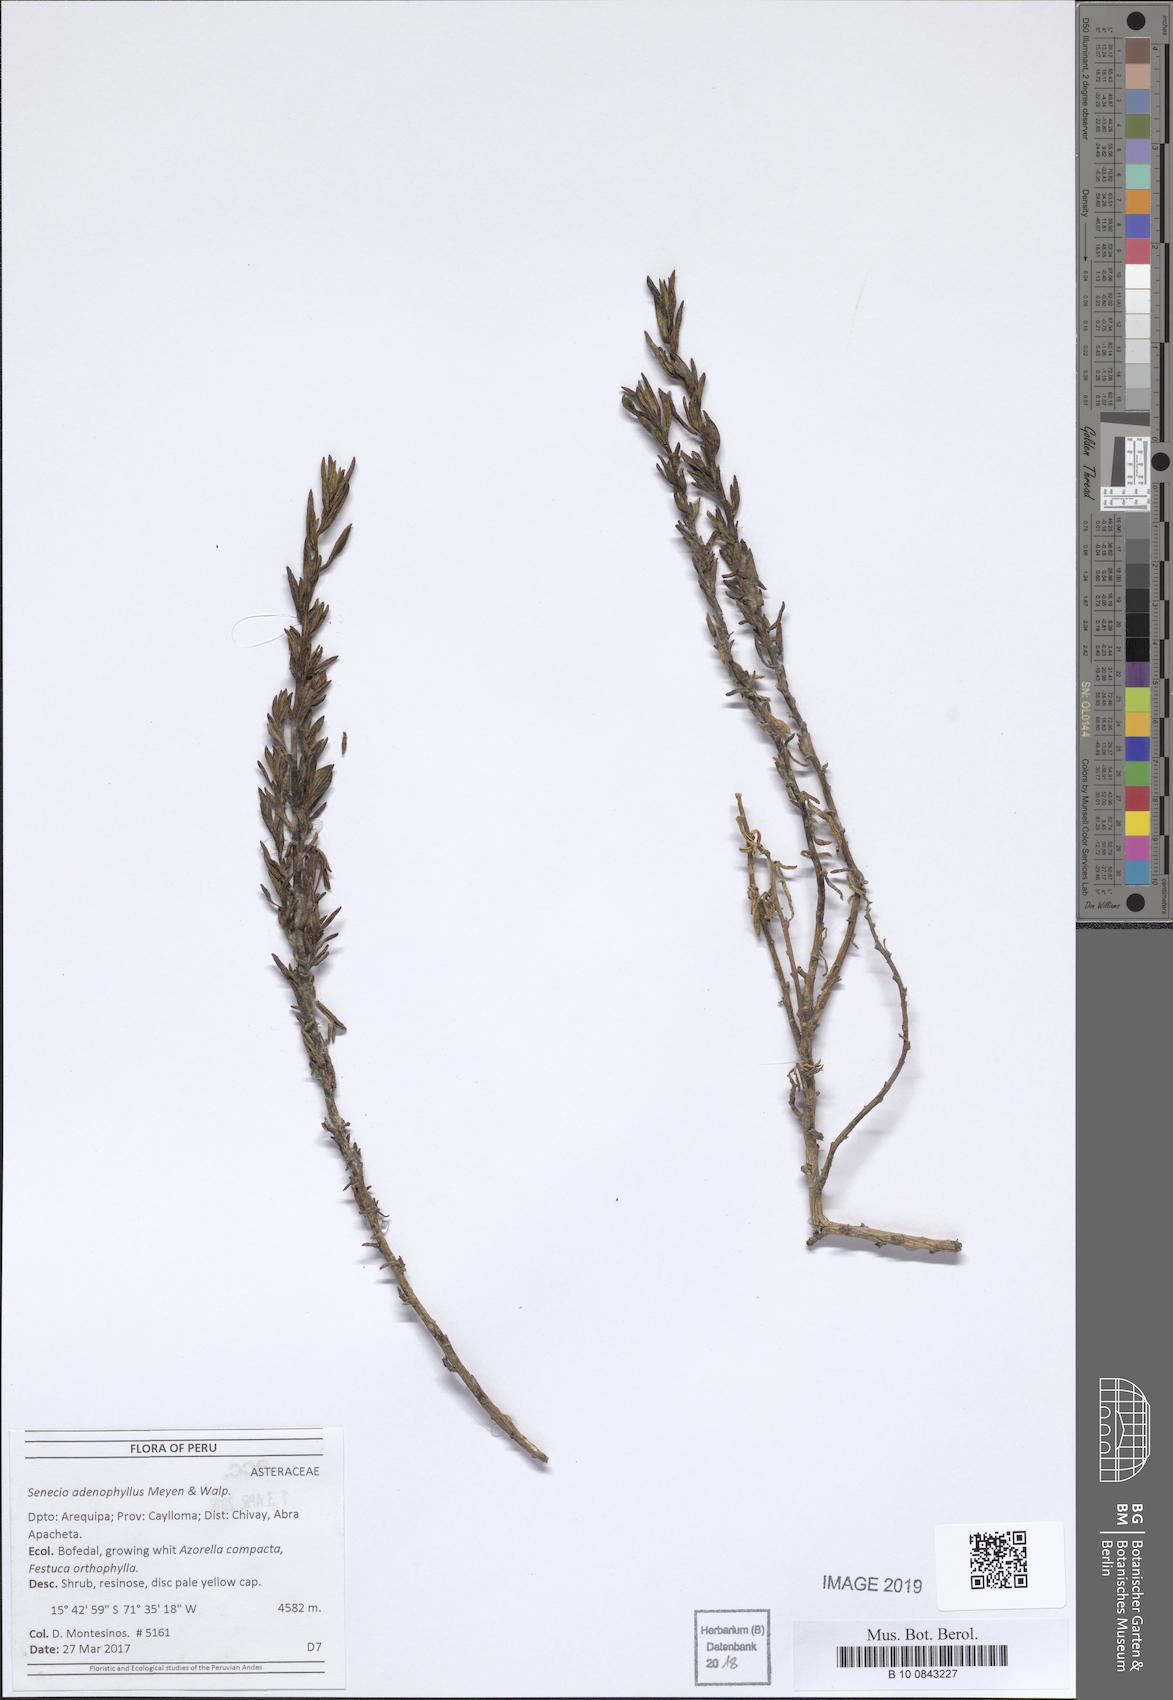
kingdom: Plantae
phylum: Tracheophyta
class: Magnoliopsida
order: Asterales
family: Asteraceae
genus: Senecio
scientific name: Senecio adenophyllus
